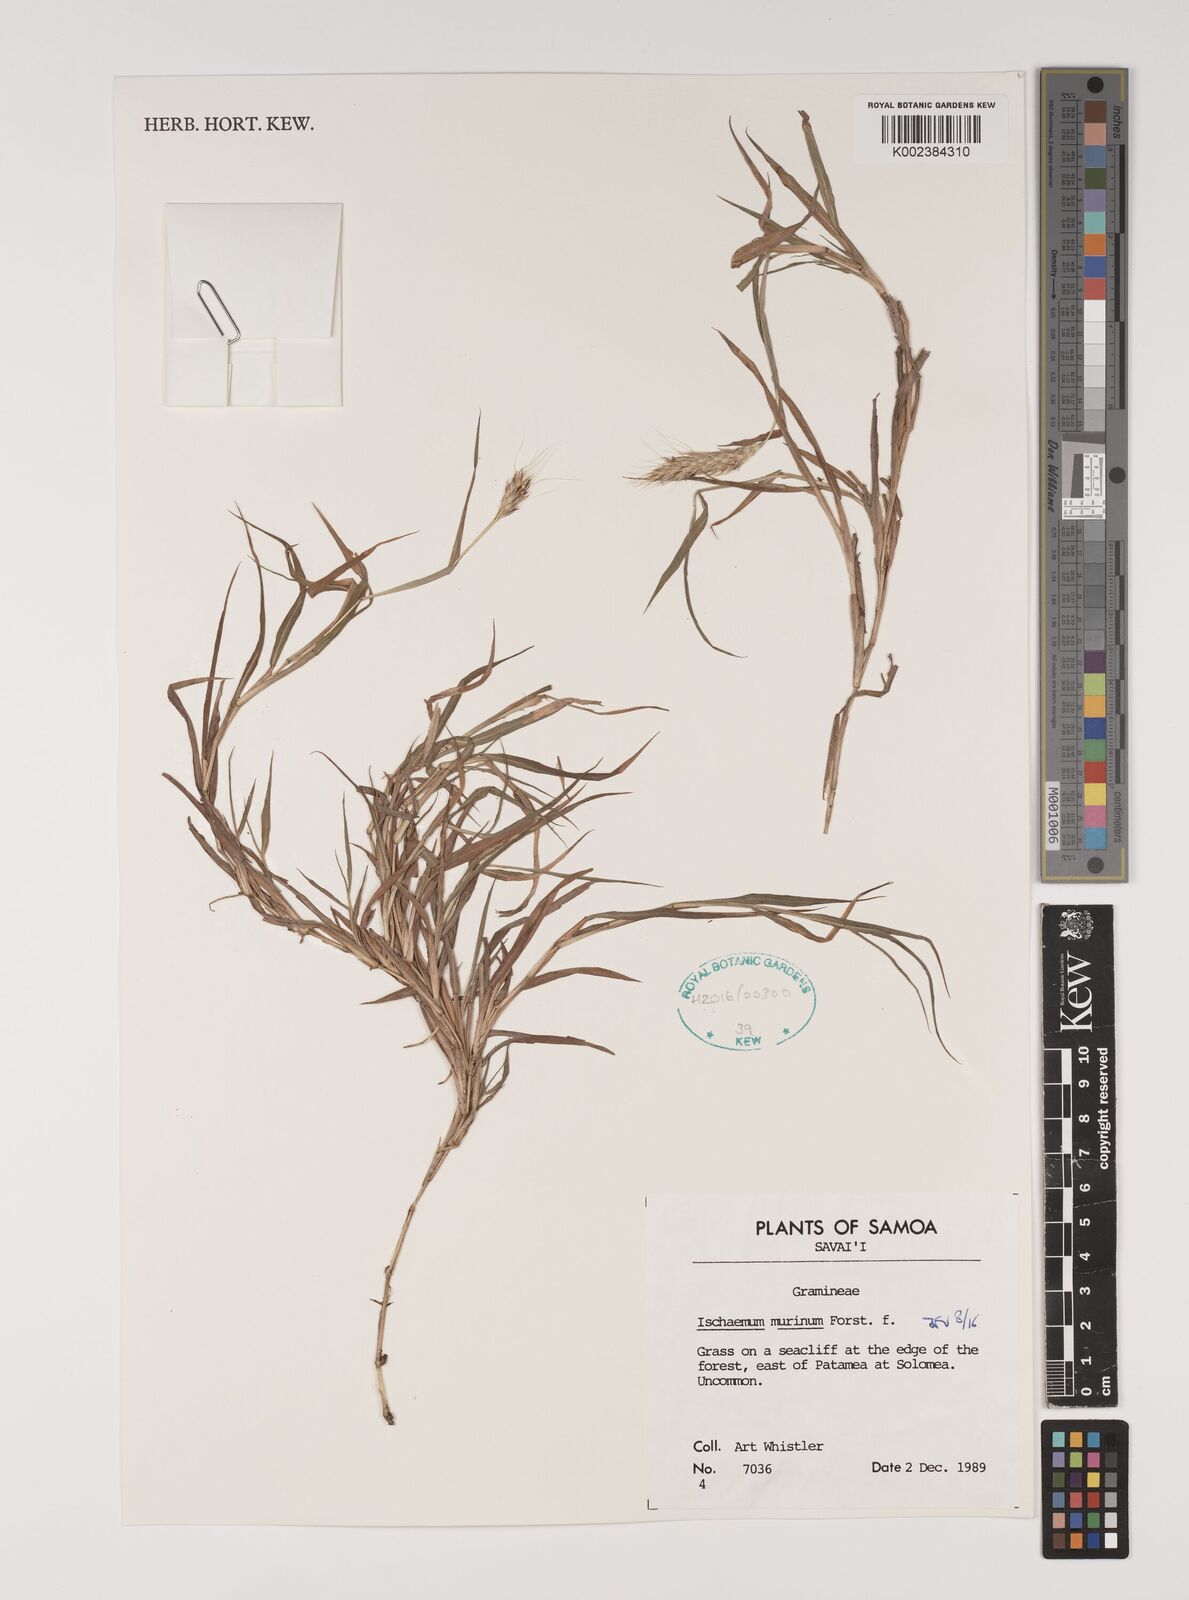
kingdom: Plantae
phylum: Tracheophyta
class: Liliopsida
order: Poales
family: Poaceae
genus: Ischaemum
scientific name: Ischaemum murinum
